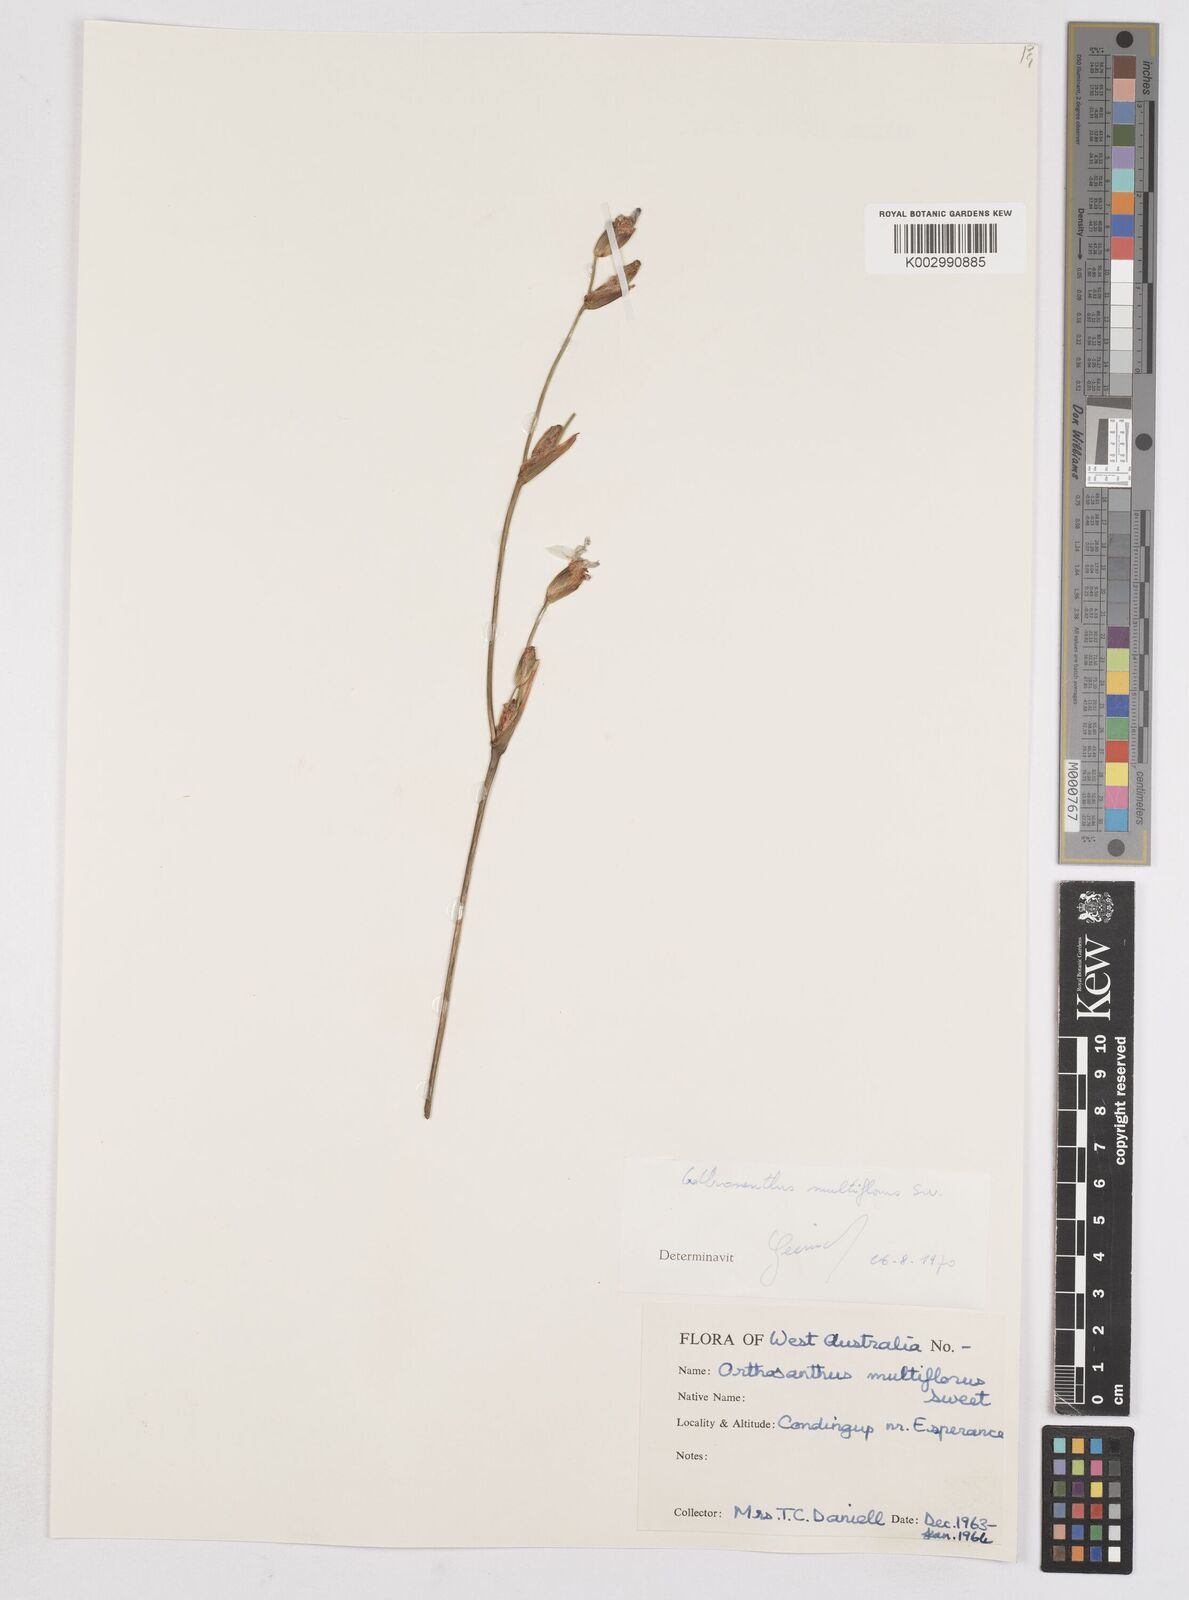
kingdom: Plantae
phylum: Tracheophyta
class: Liliopsida
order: Asparagales
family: Iridaceae
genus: Orthrosanthus
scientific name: Orthrosanthus multiflorus
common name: Morning-flag
